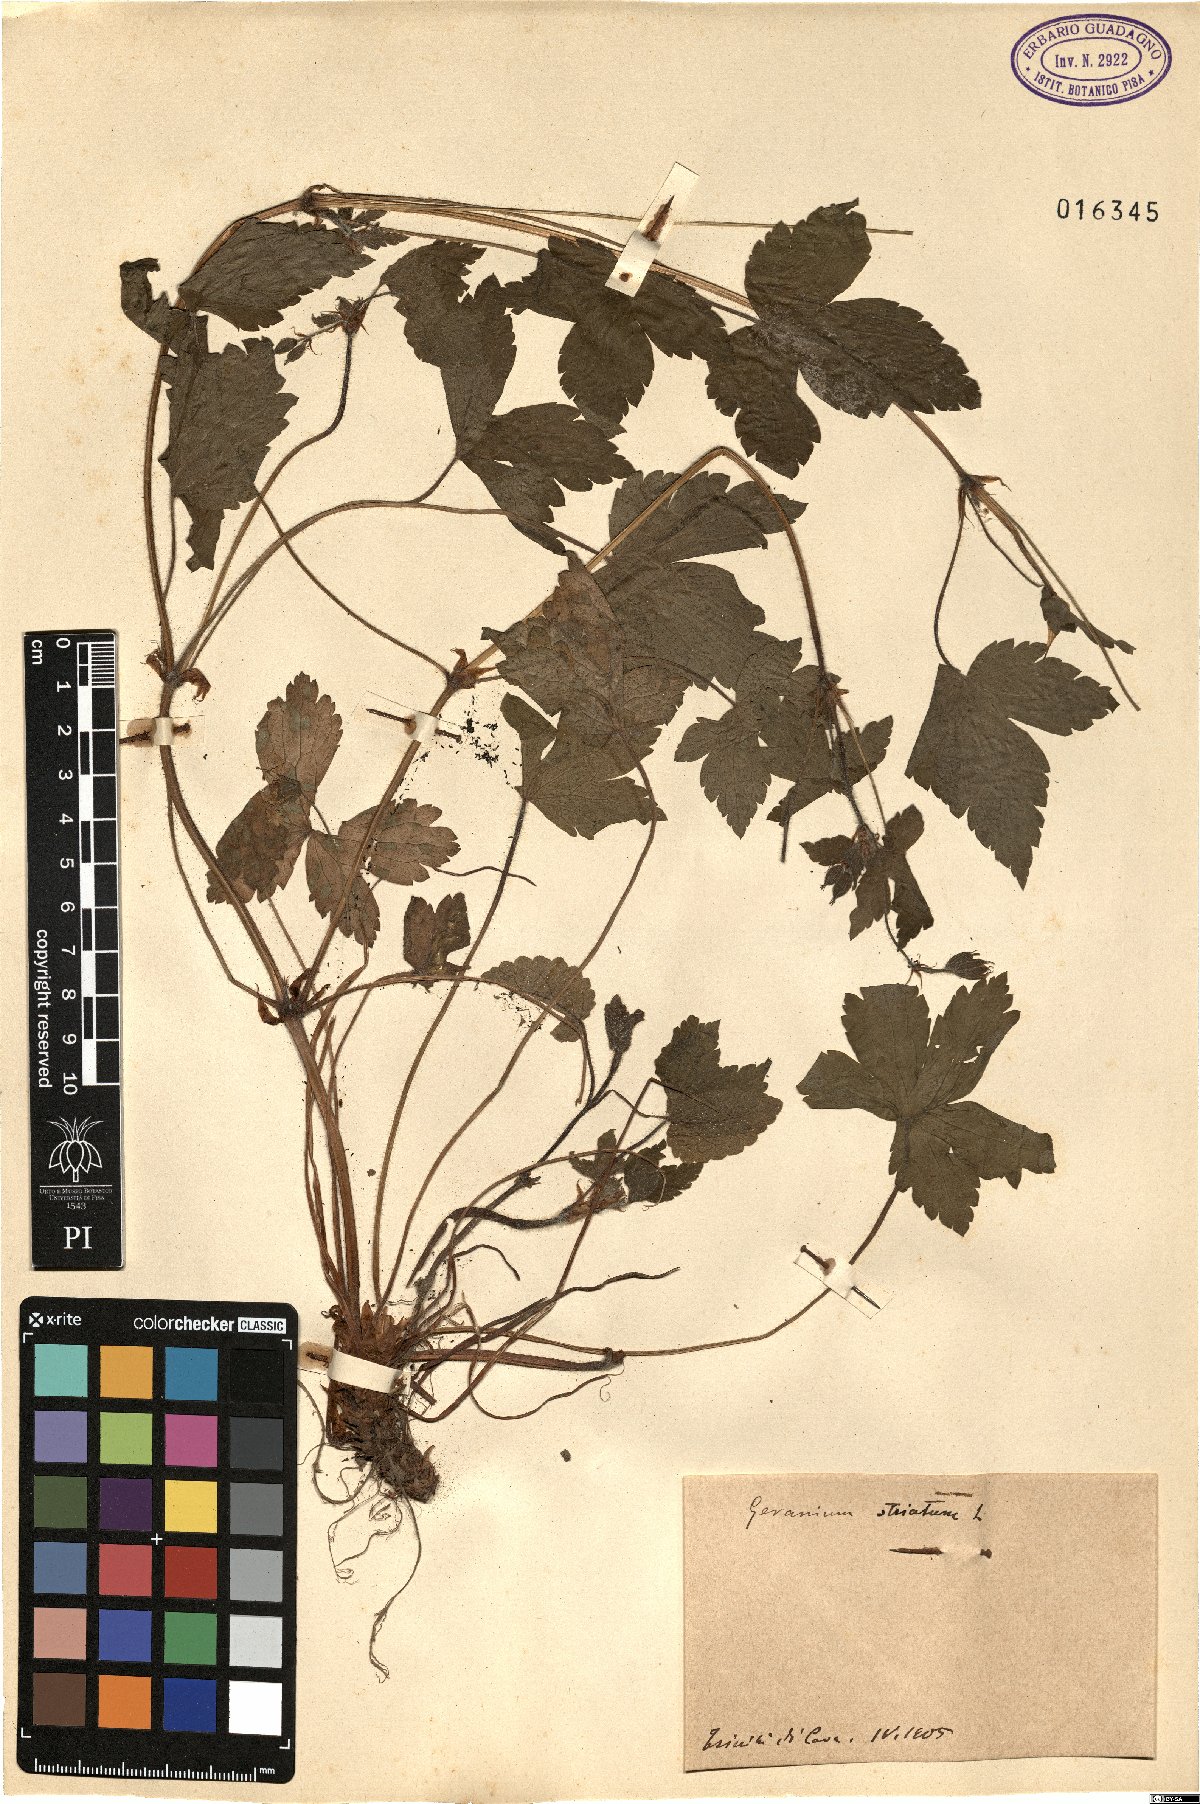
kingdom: Plantae
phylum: Tracheophyta
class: Magnoliopsida
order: Geraniales
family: Geraniaceae
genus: Geranium
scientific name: Geranium versicolor
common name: Pencilled crane's-bill
